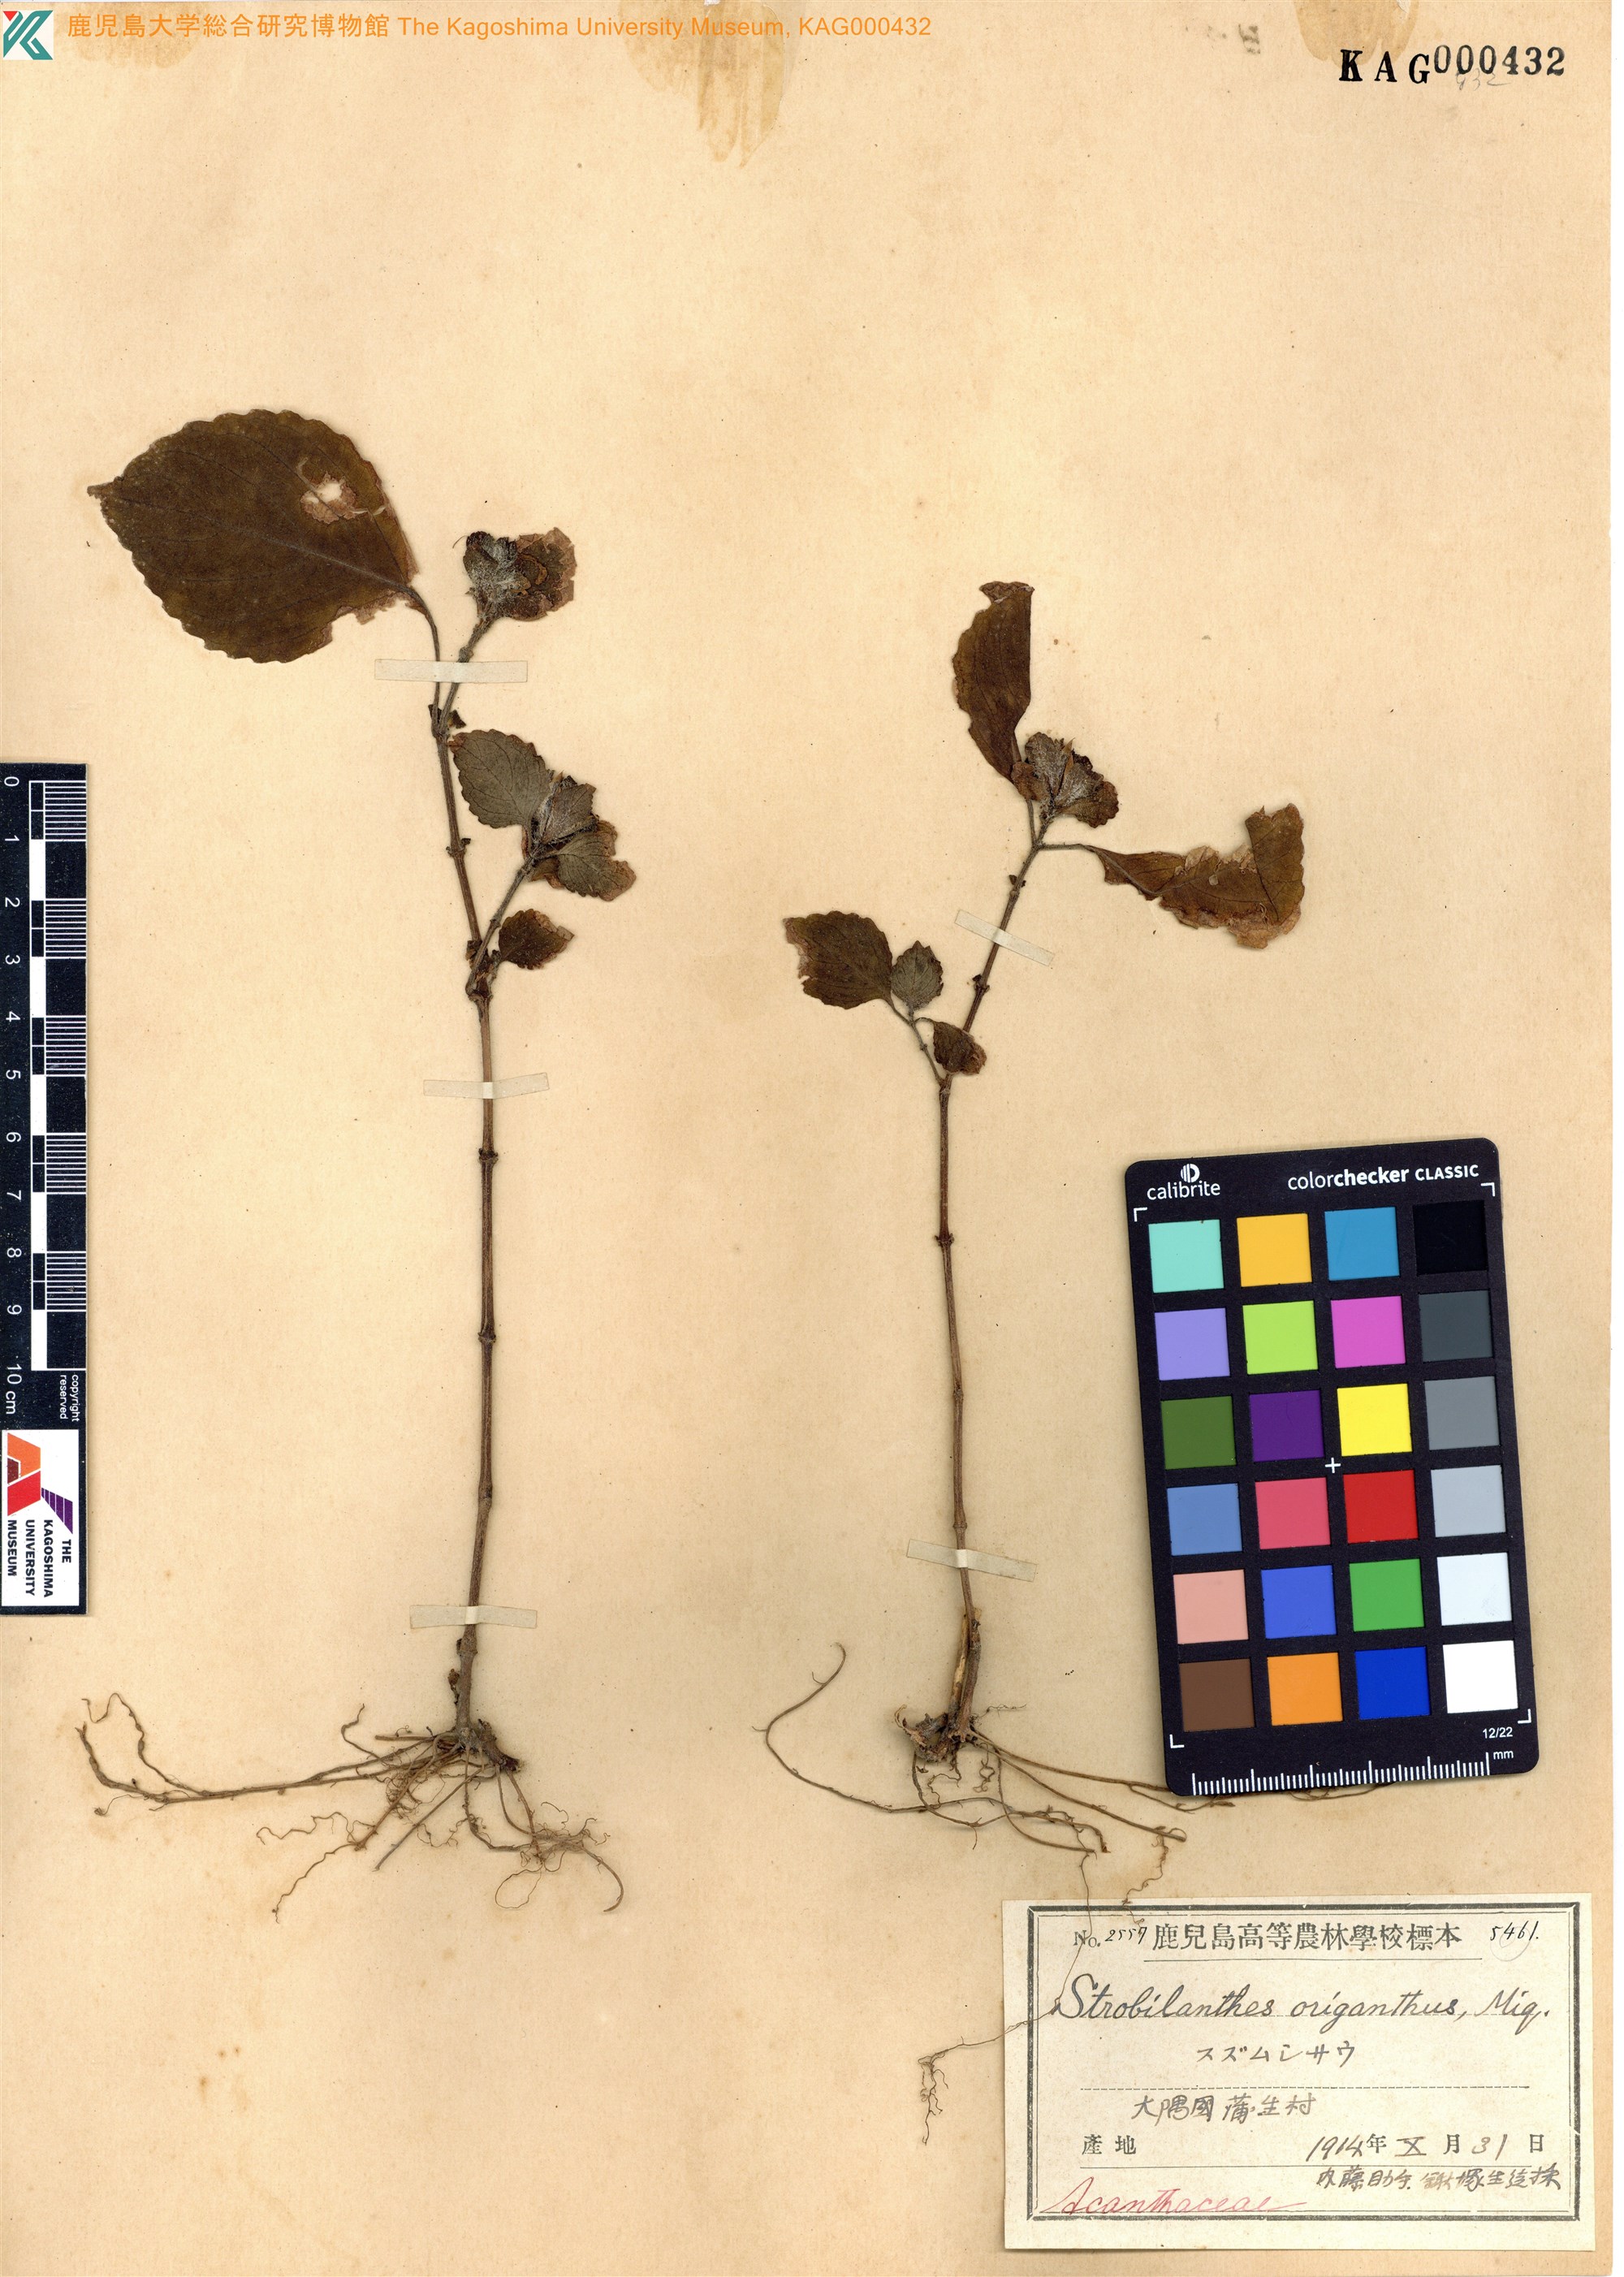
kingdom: Plantae
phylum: Tracheophyta
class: Magnoliopsida
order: Lamiales
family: Acanthaceae
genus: Strobilanthes
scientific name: Strobilanthes oligantha
